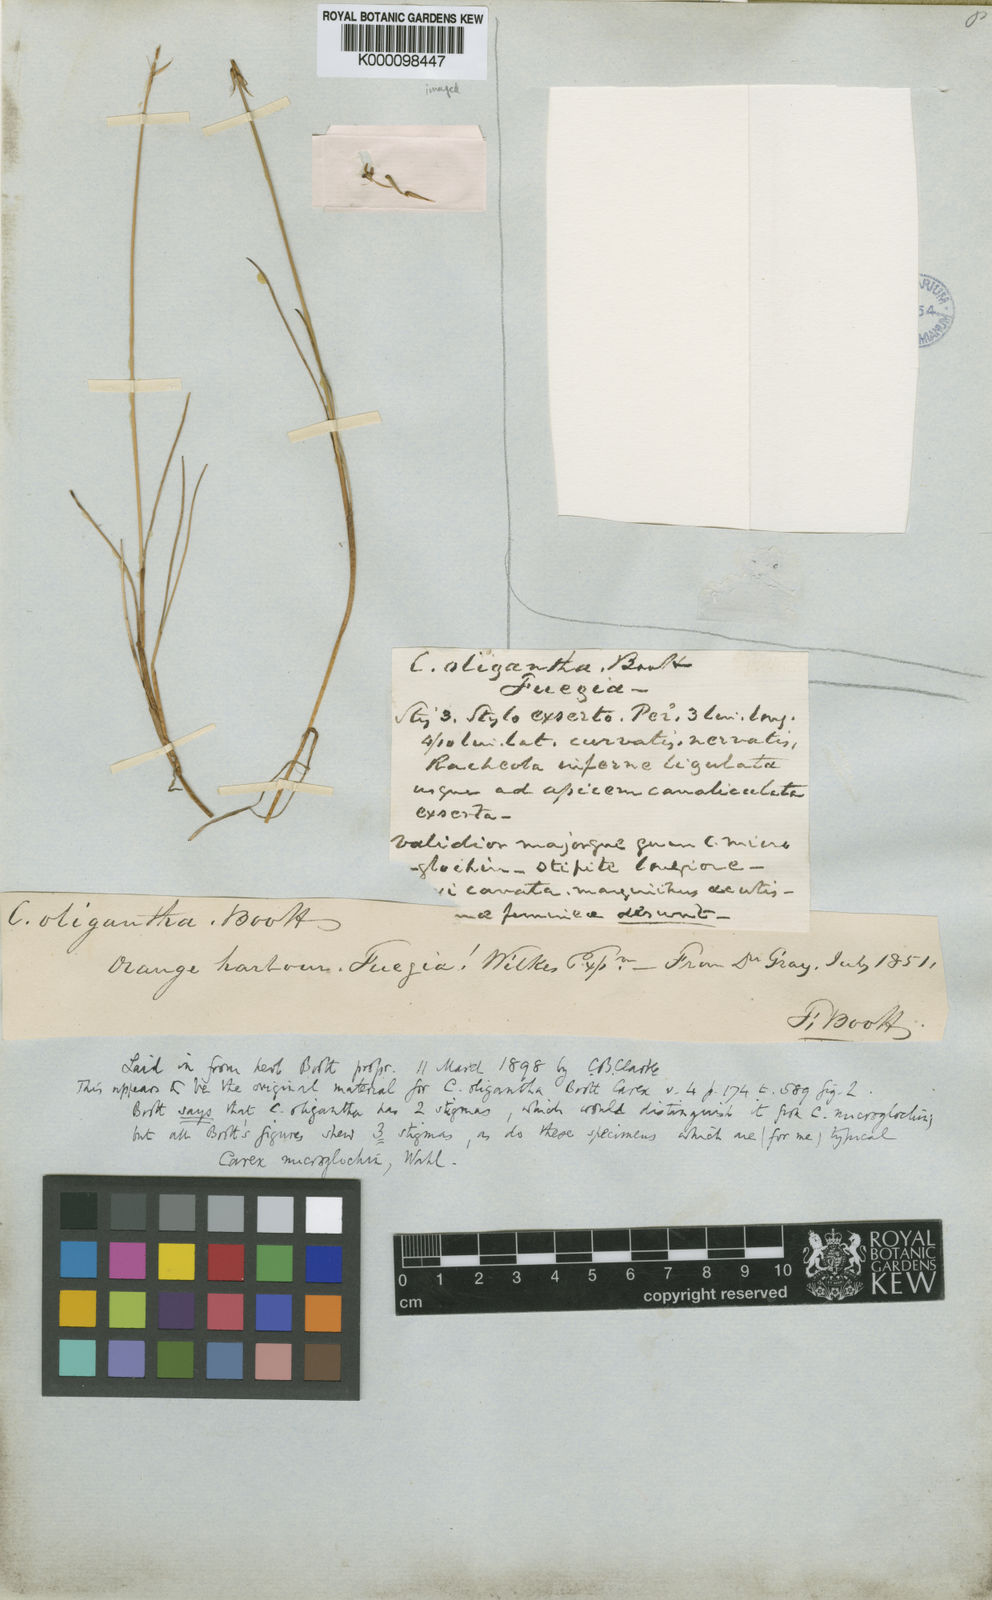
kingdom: Plantae
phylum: Tracheophyta
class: Liliopsida
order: Poales
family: Cyperaceae
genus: Carex
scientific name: Carex microglochin
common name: Bristle sedge
